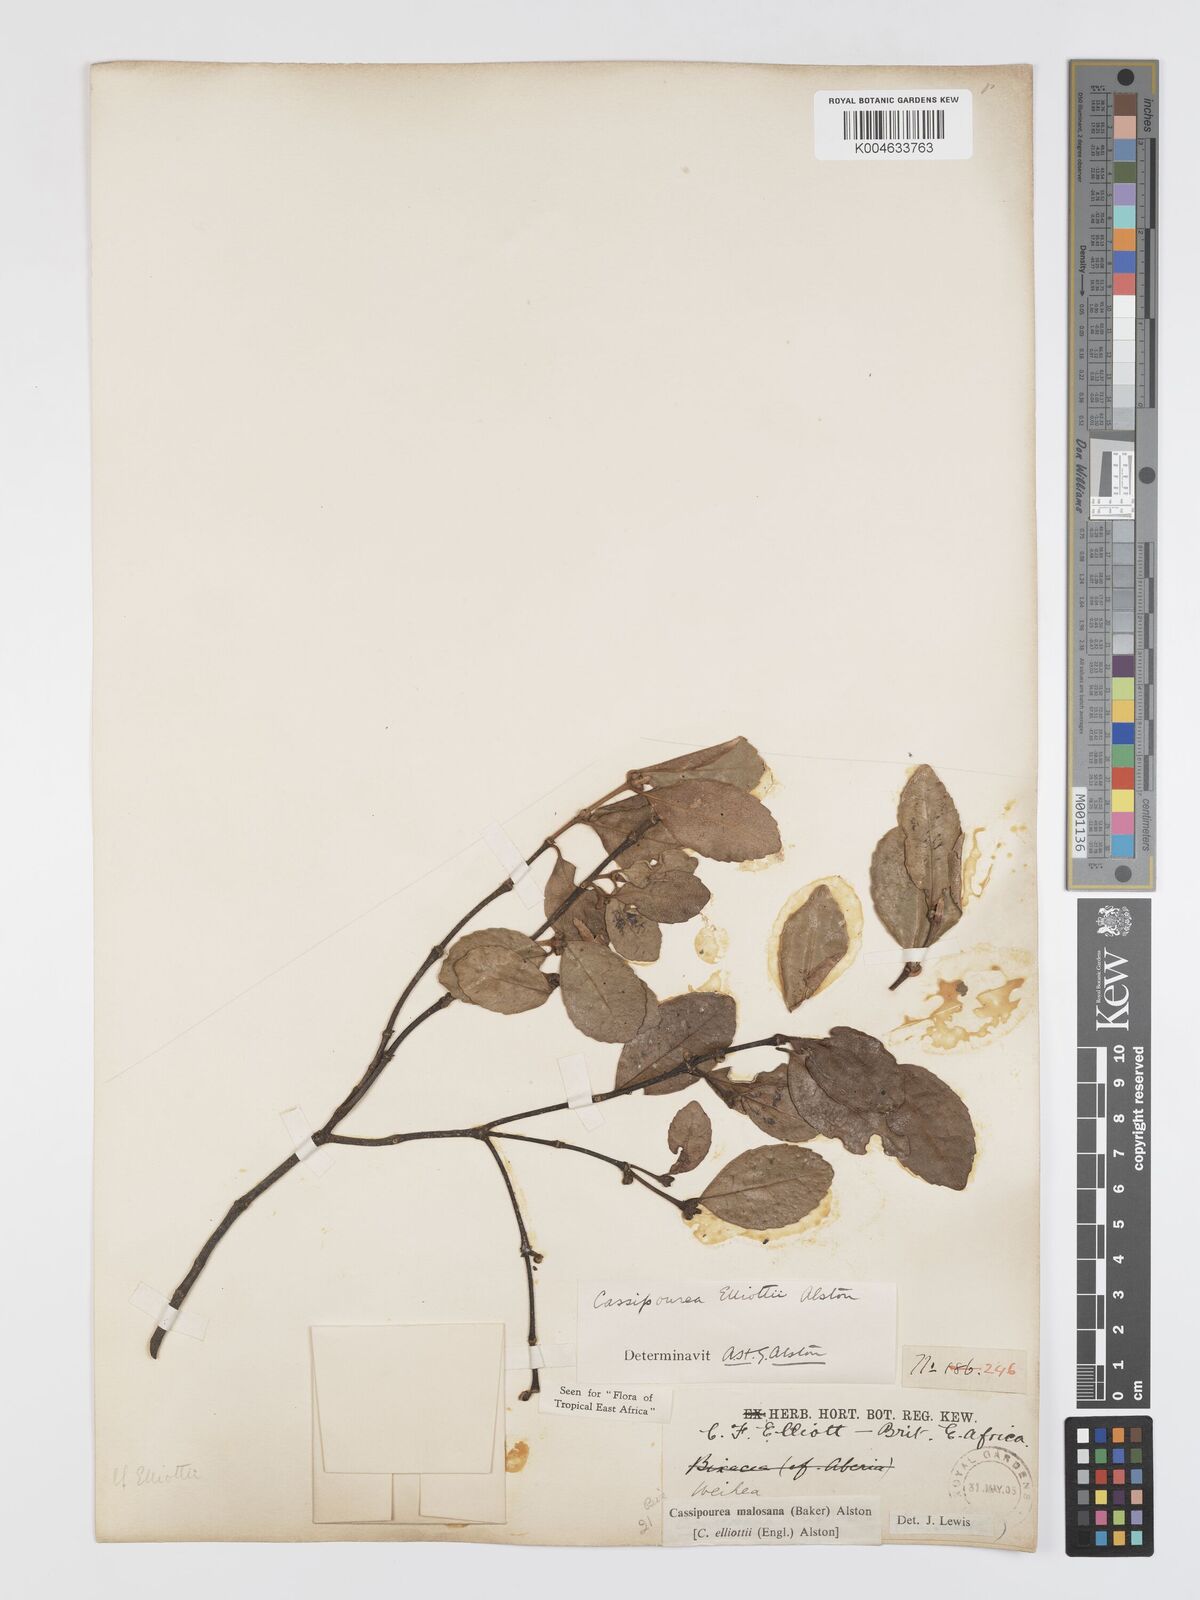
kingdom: Plantae
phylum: Tracheophyta
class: Magnoliopsida
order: Malpighiales
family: Rhizophoraceae
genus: Cassipourea
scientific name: Cassipourea malosana
